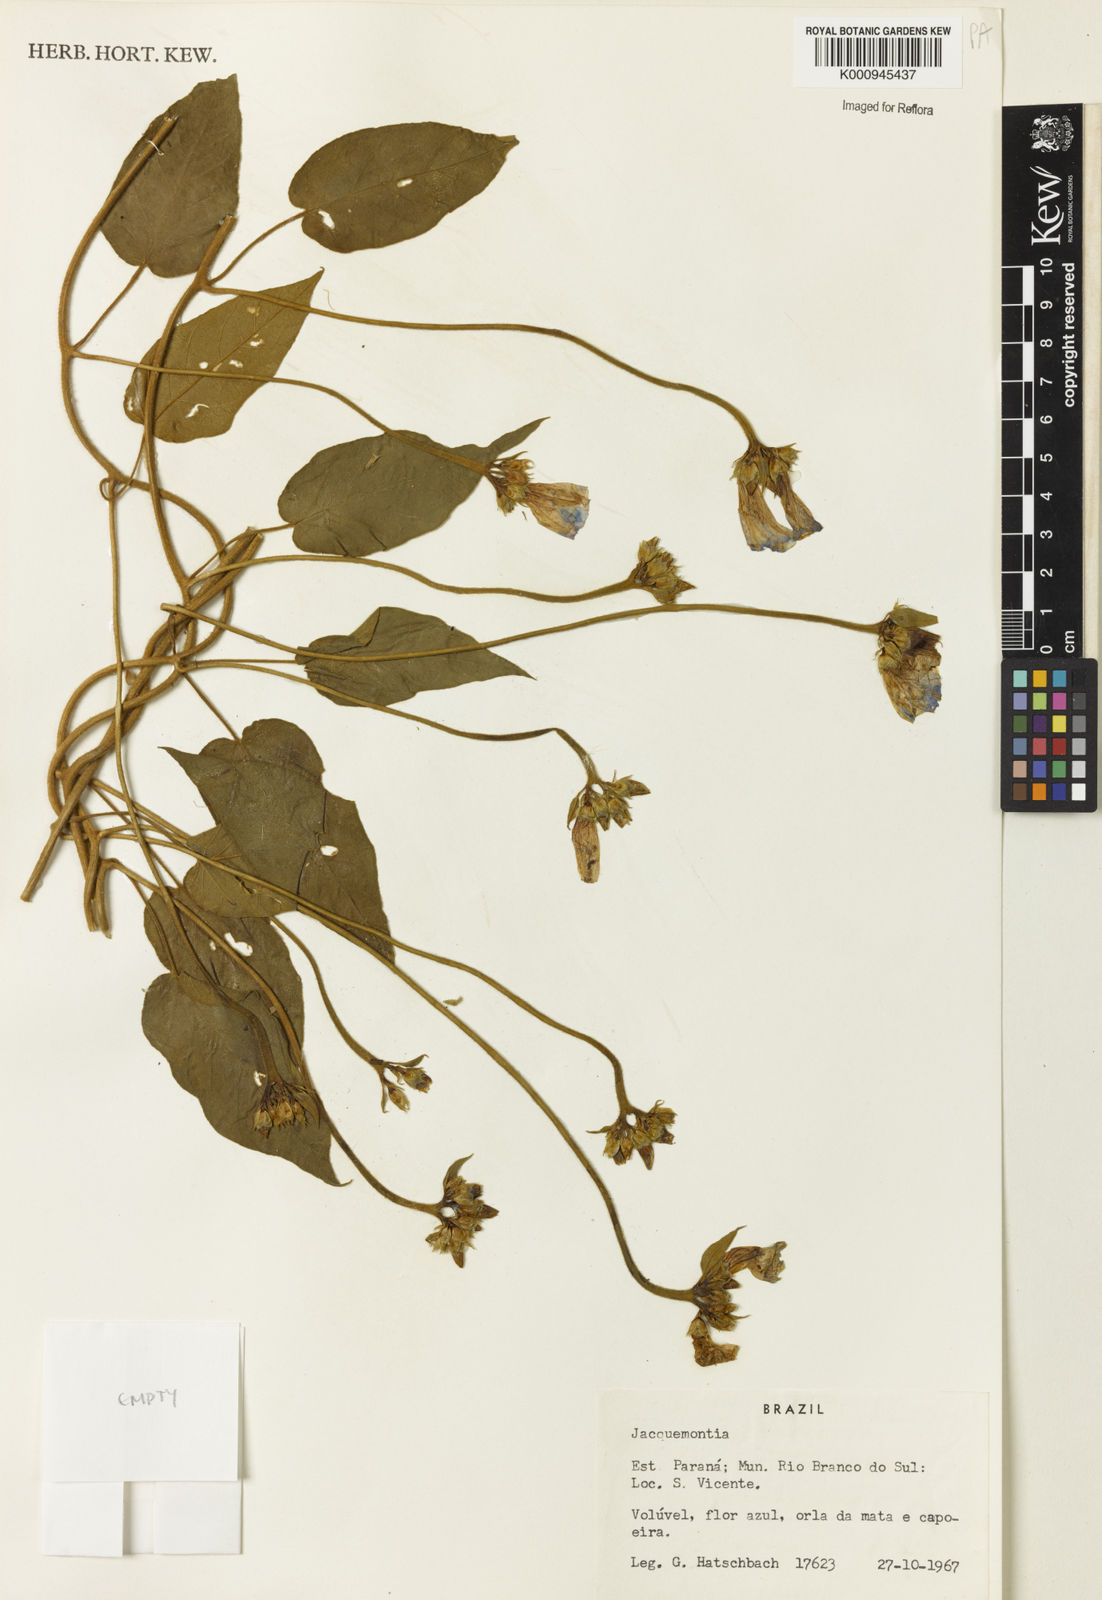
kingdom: Plantae
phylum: Tracheophyta
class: Magnoliopsida
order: Solanales
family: Convolvulaceae
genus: Jacquemontia
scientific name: Jacquemontia
